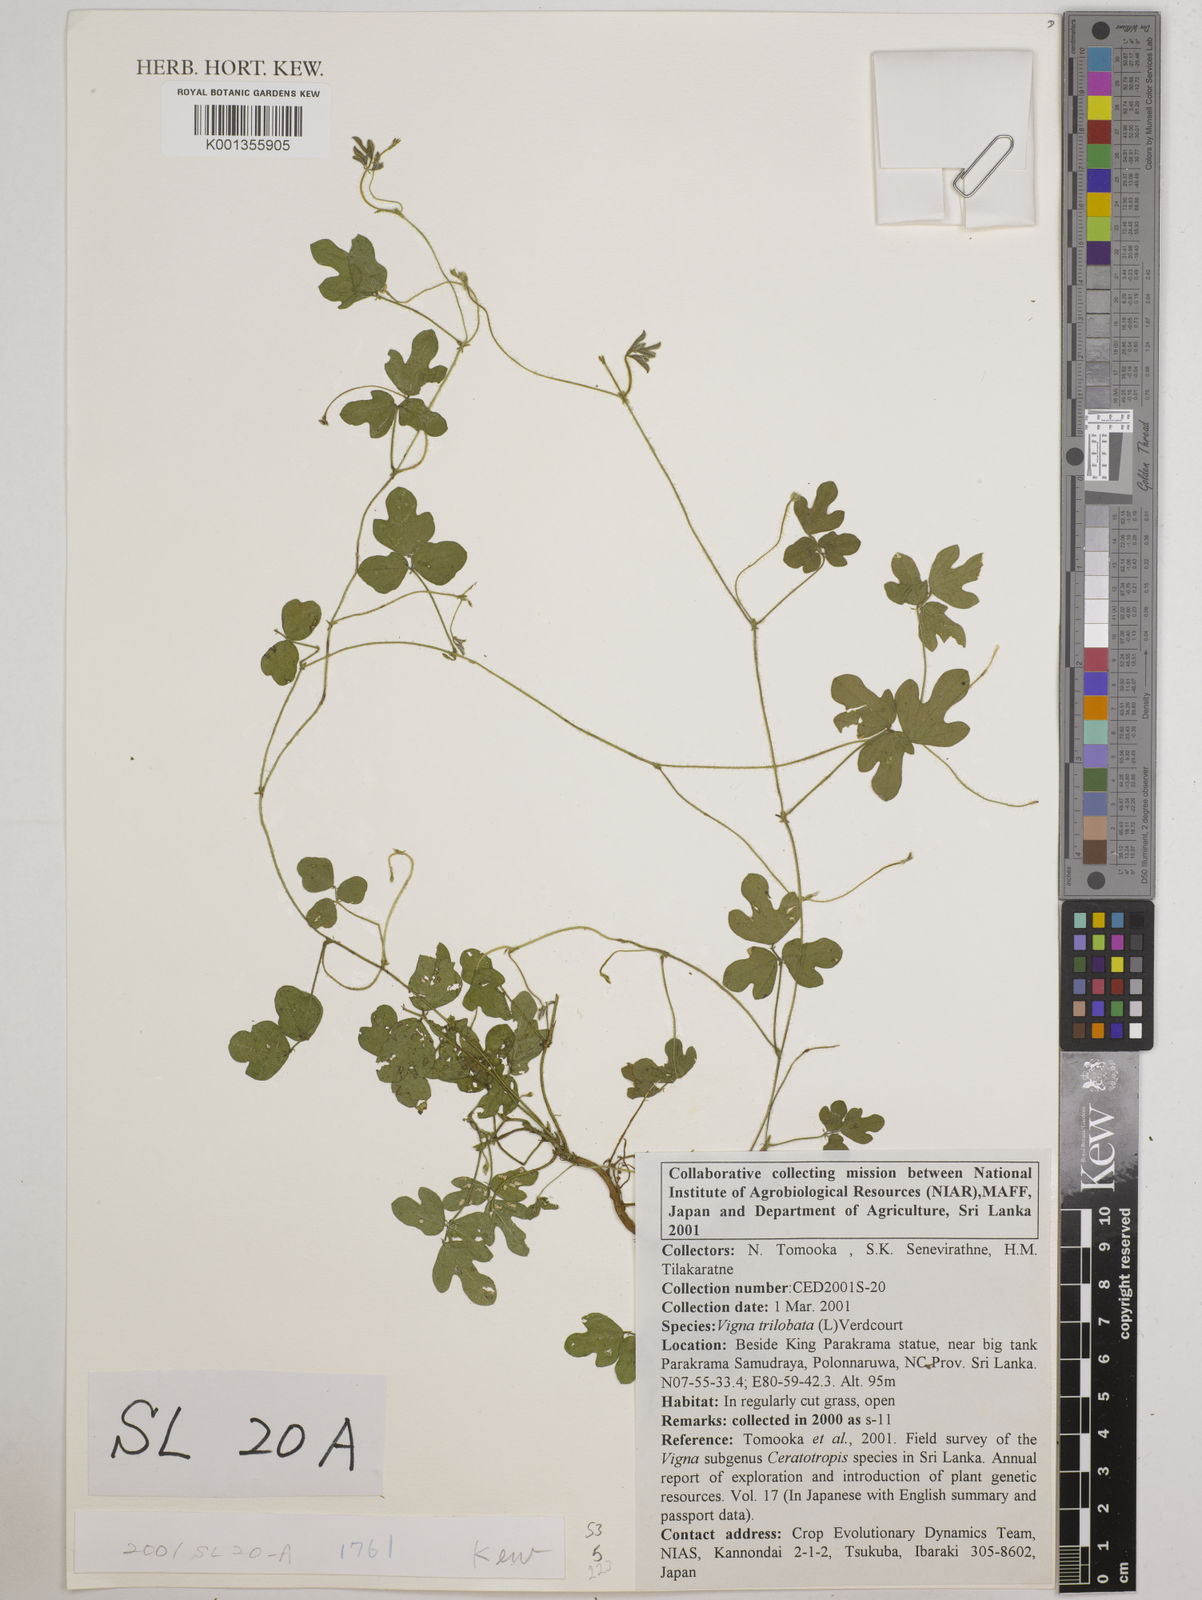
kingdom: Plantae
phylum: Tracheophyta
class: Magnoliopsida
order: Fabales
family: Fabaceae
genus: Vigna
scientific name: Vigna trilobata
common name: Jungli-bean
